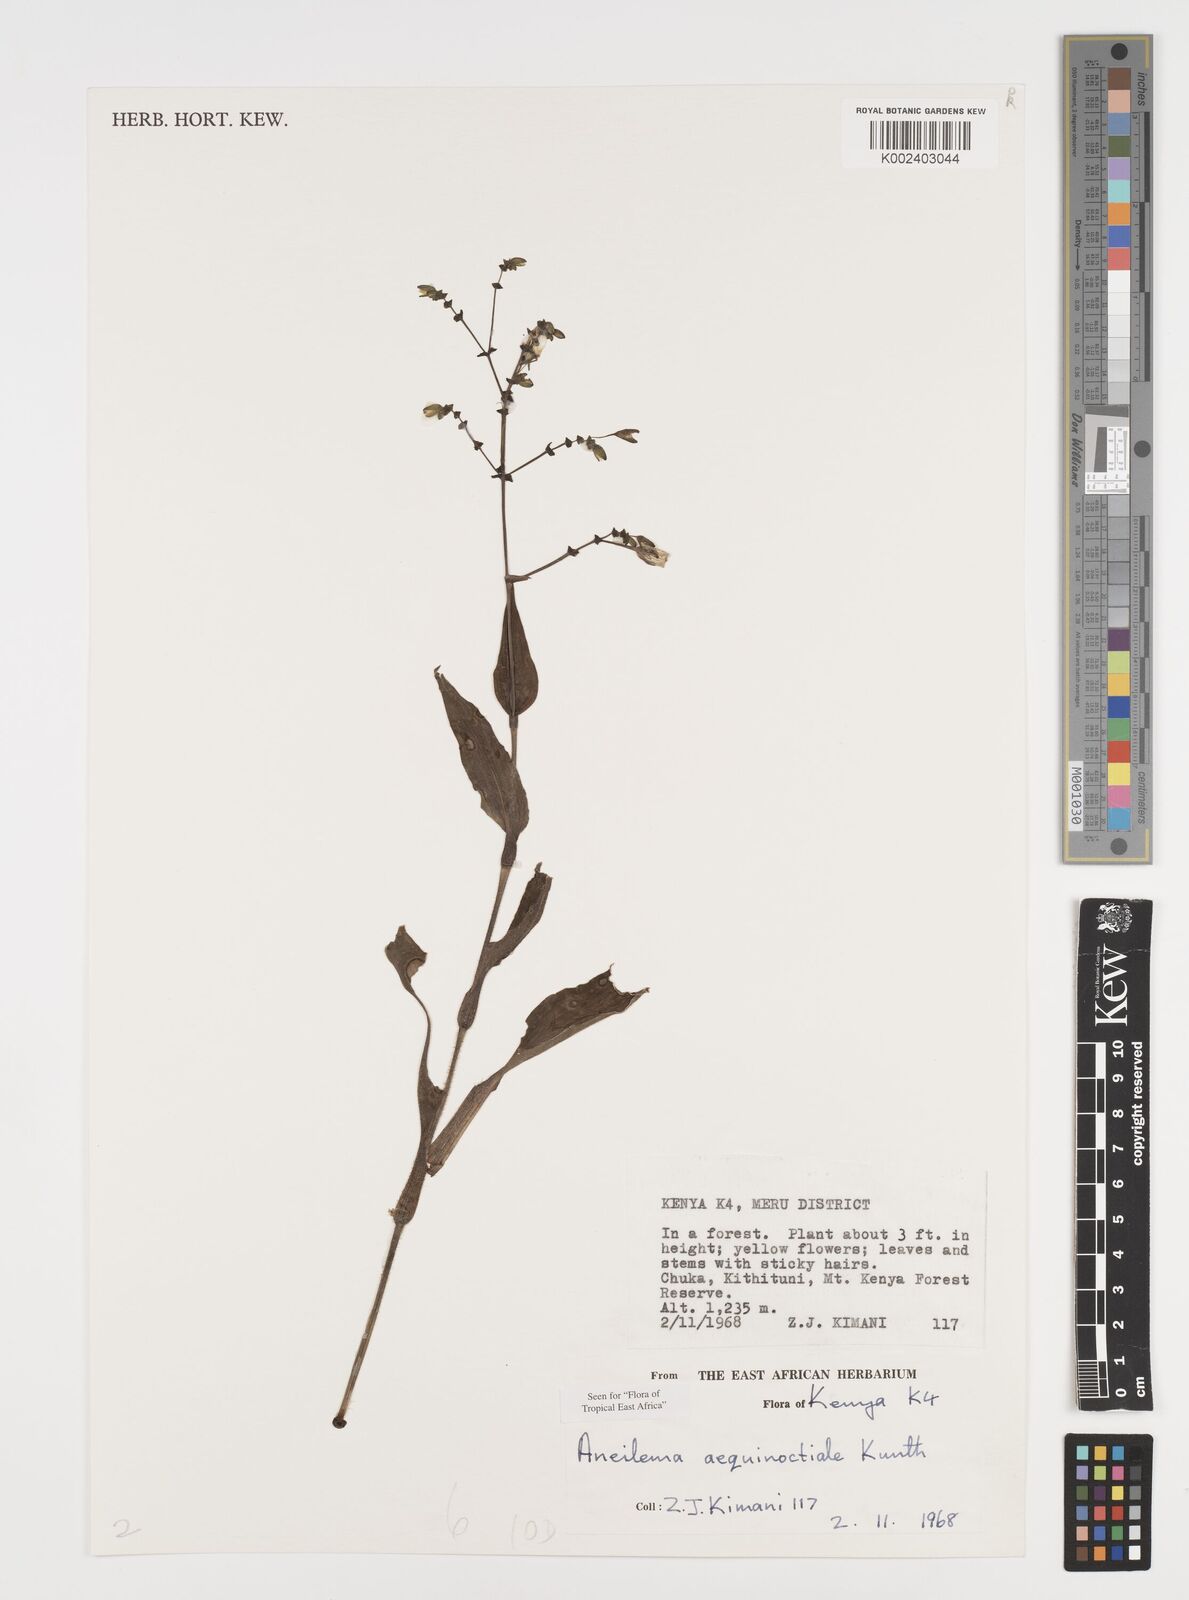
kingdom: Plantae
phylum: Tracheophyta
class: Liliopsida
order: Commelinales
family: Commelinaceae
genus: Aneilema
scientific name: Aneilema aequinoctiale
